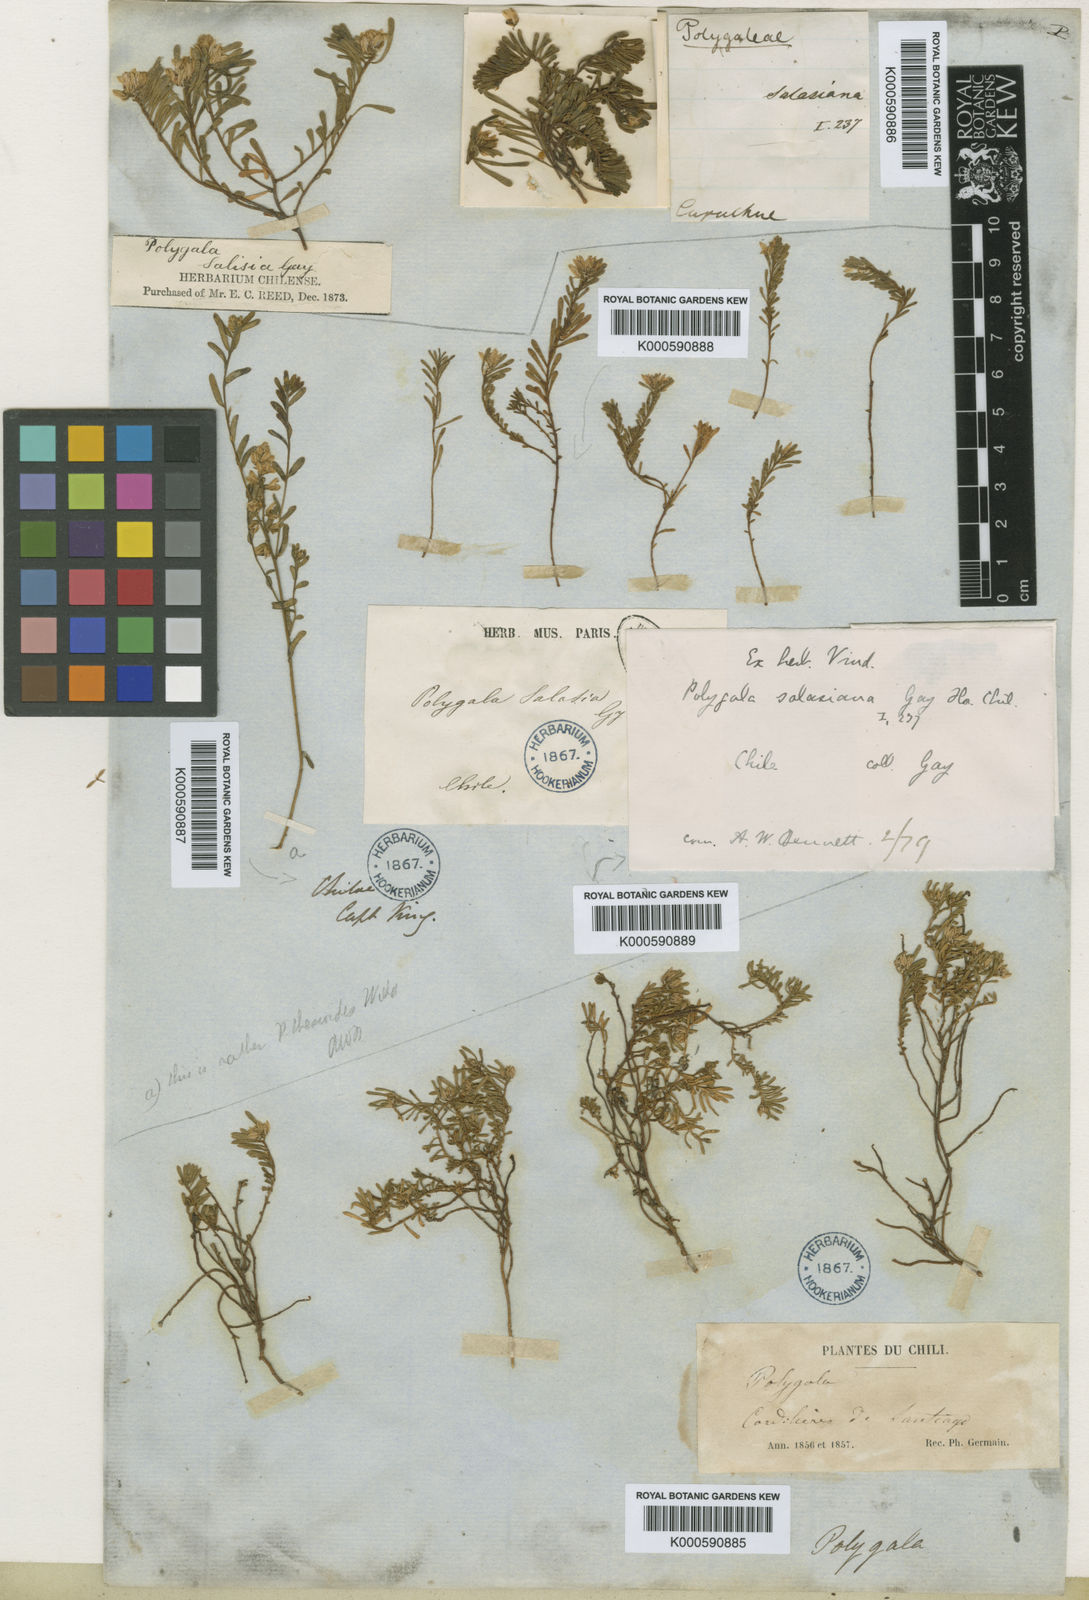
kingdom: Plantae
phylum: Tracheophyta
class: Magnoliopsida
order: Fabales
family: Polygalaceae
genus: Polygala
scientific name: Polygala salasiana
